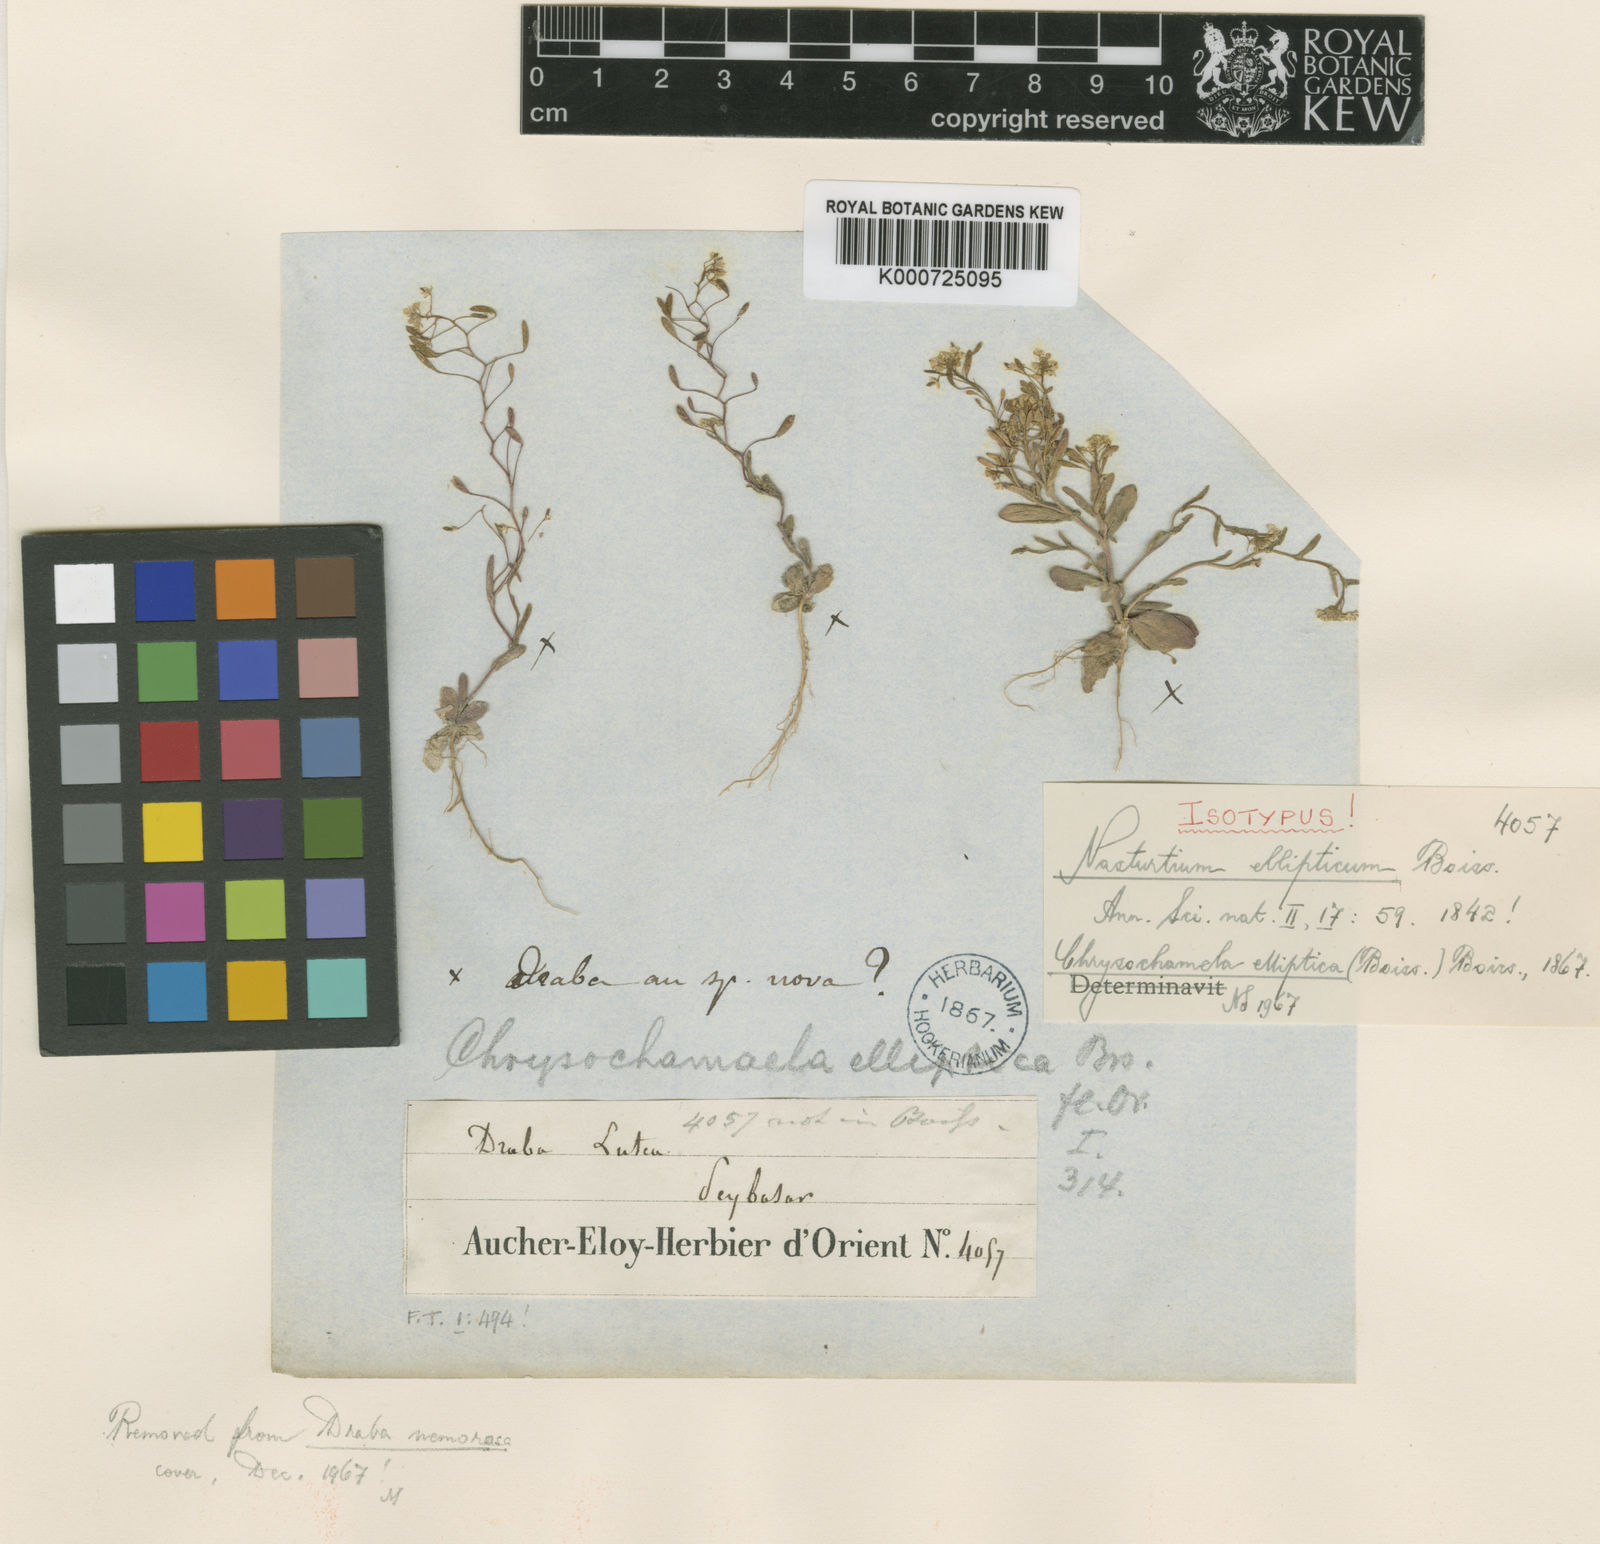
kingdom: Plantae
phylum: Tracheophyta
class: Magnoliopsida
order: Brassicales
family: Brassicaceae
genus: Chrysochamela
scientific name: Chrysochamela elliptica
